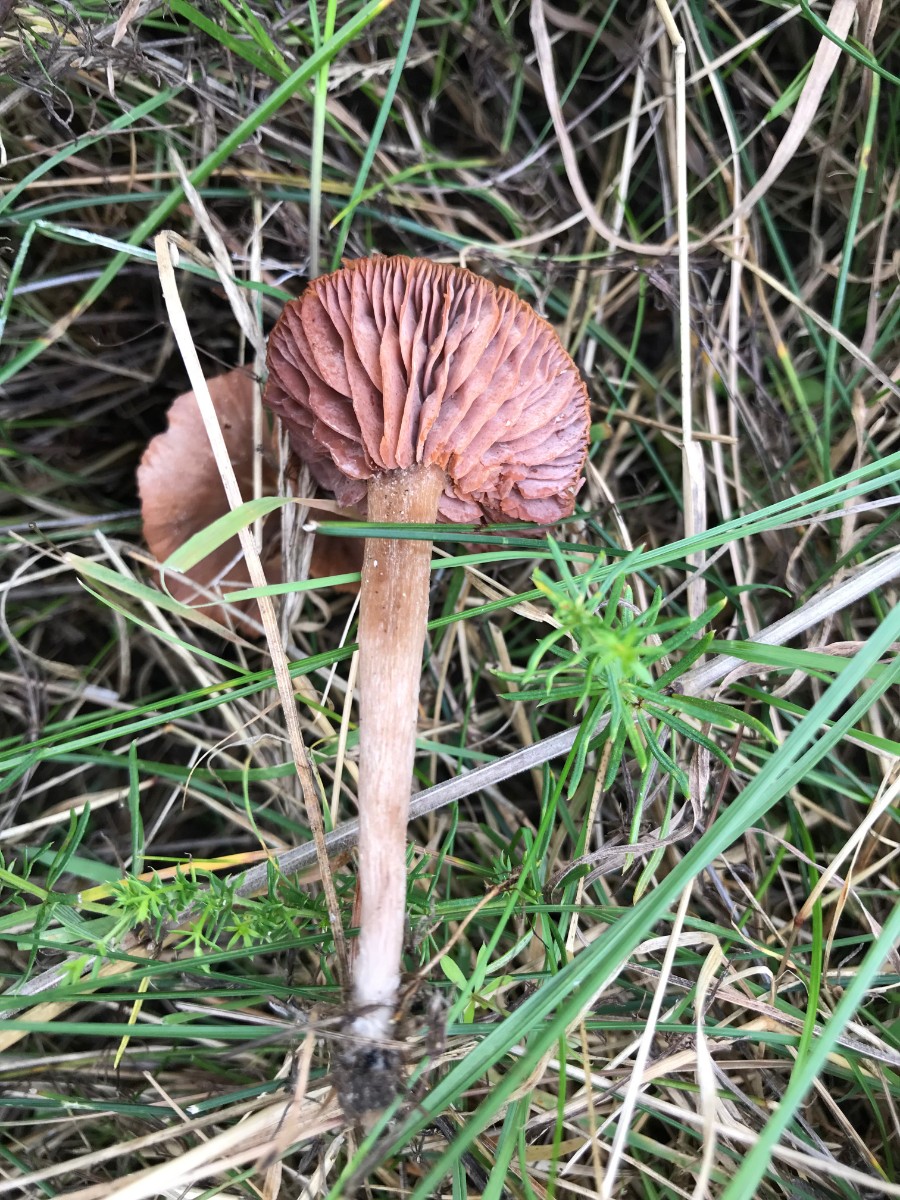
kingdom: Fungi
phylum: Basidiomycota
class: Agaricomycetes
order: Agaricales
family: Hydnangiaceae
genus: Laccaria
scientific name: Laccaria laccata
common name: rød ametysthat
